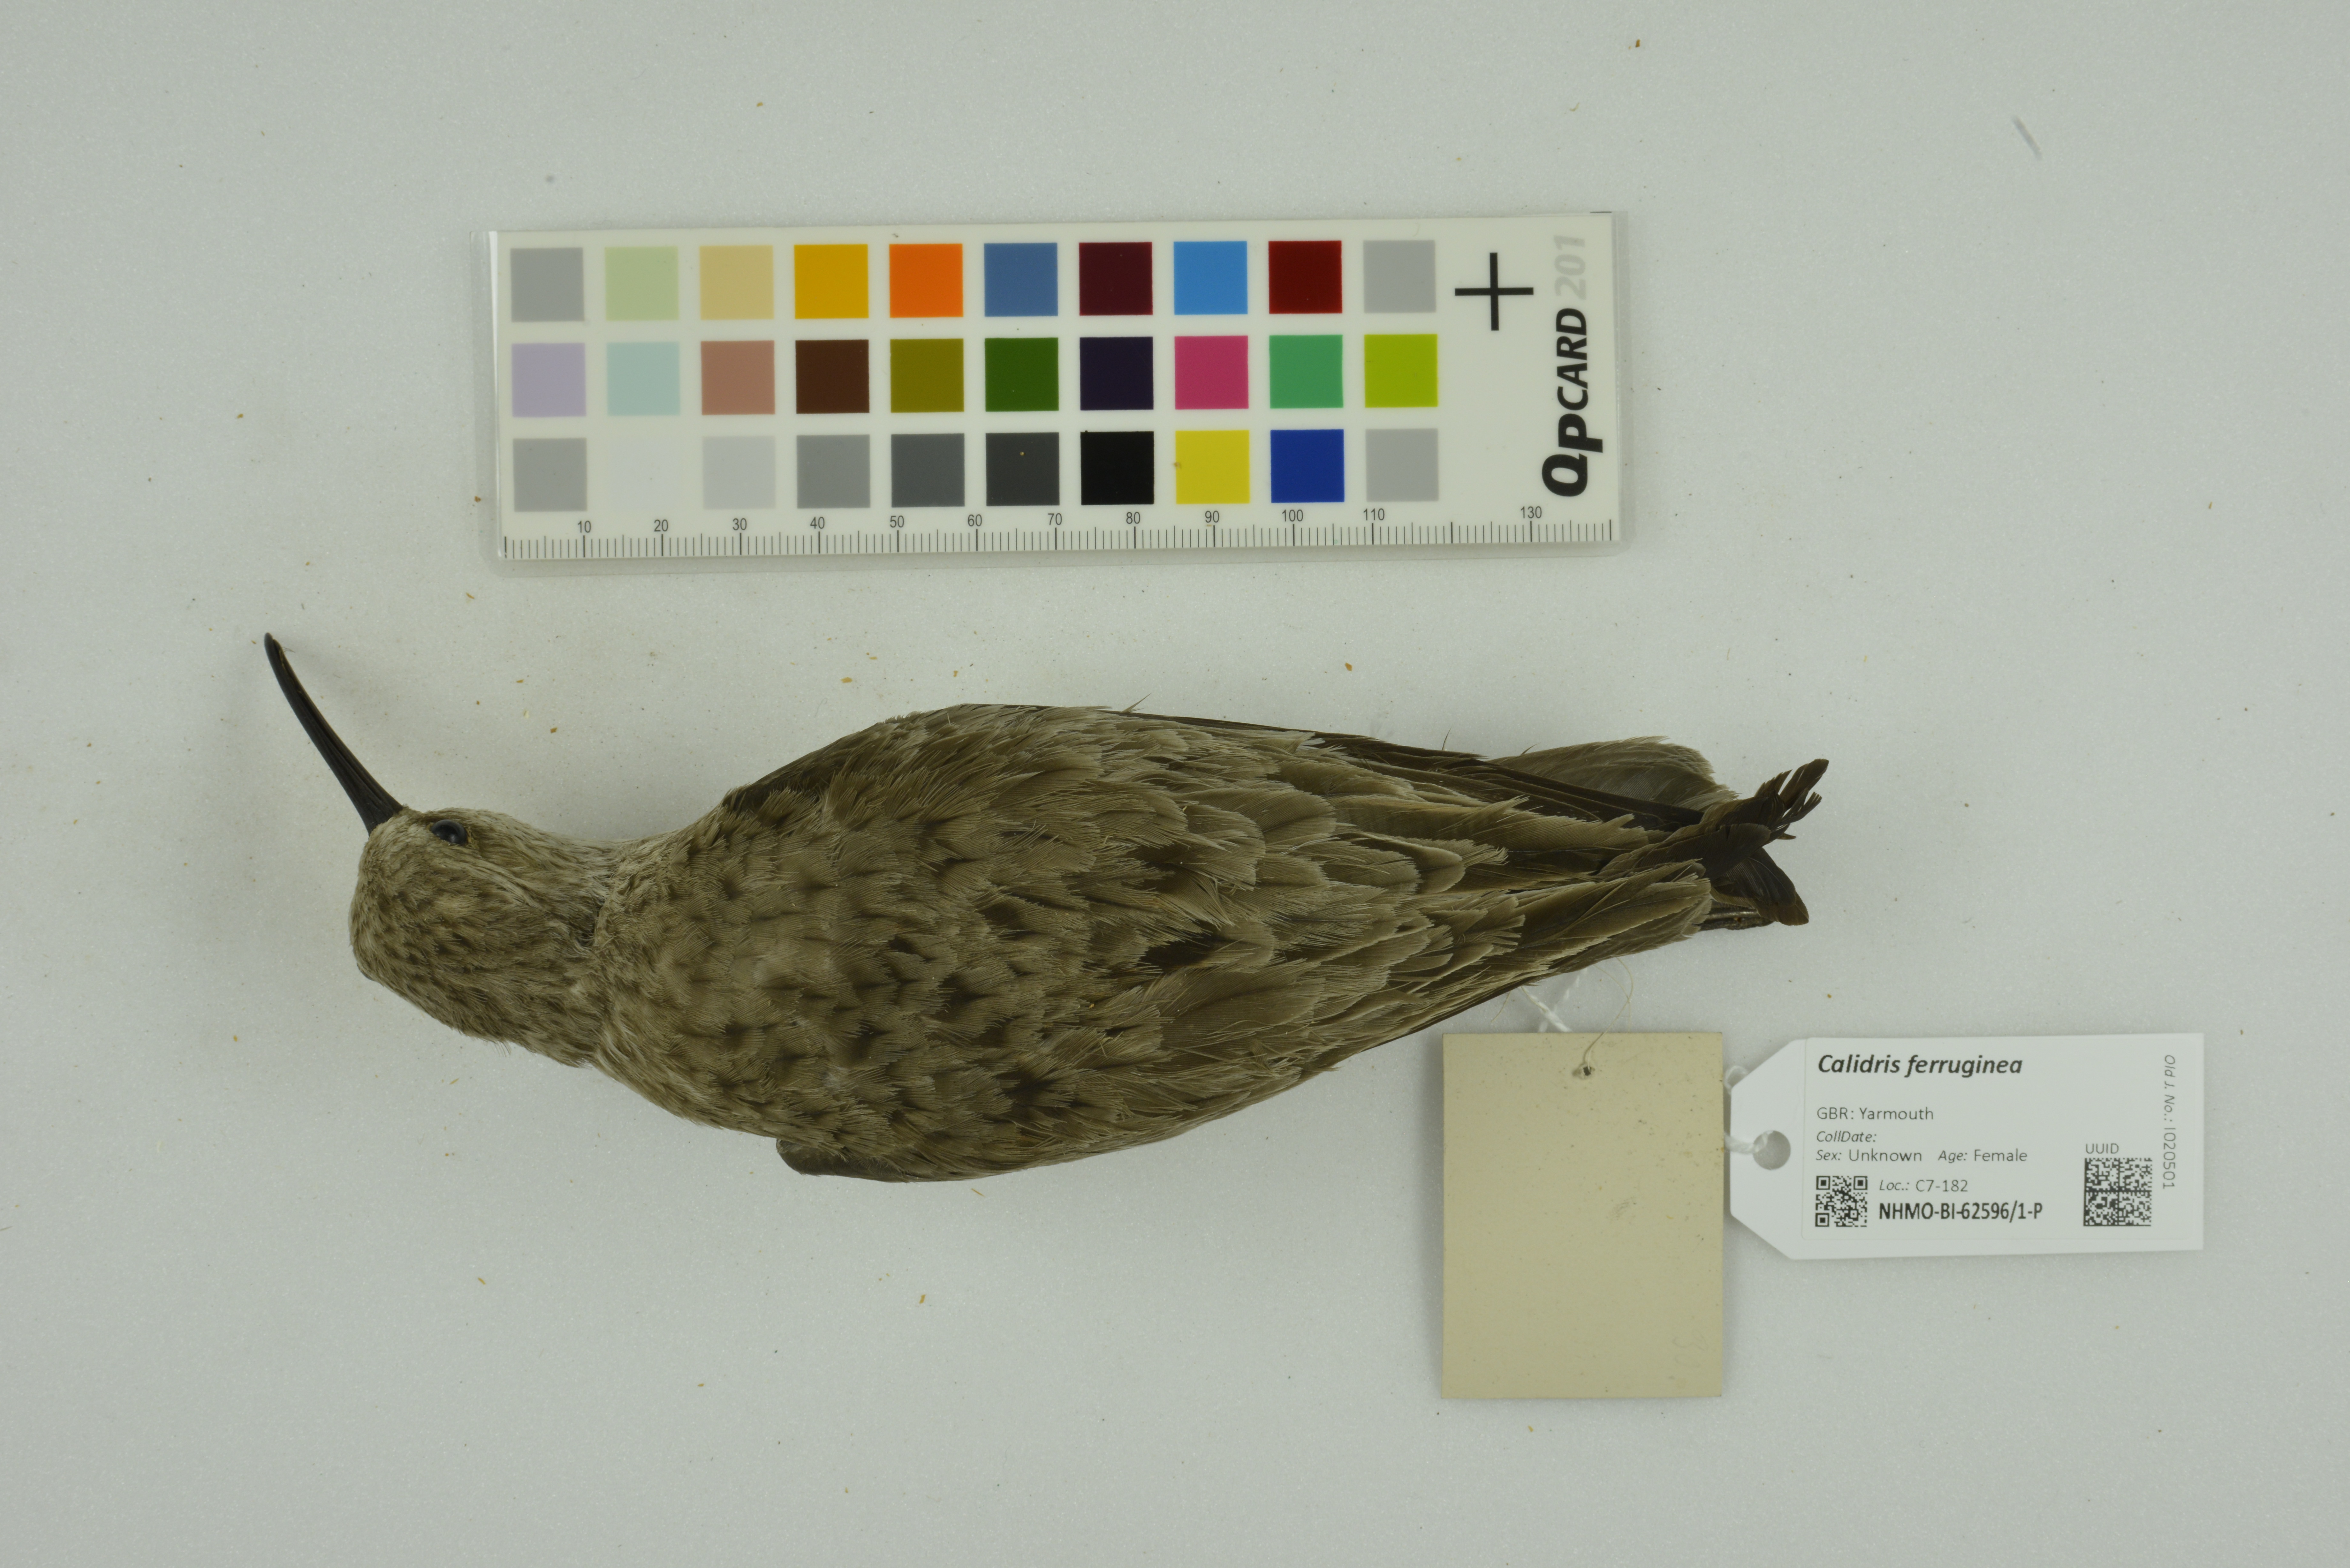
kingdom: Animalia
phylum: Chordata
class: Aves
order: Charadriiformes
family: Scolopacidae
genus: Calidris
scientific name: Calidris ferruginea
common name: Curlew sandpiper
